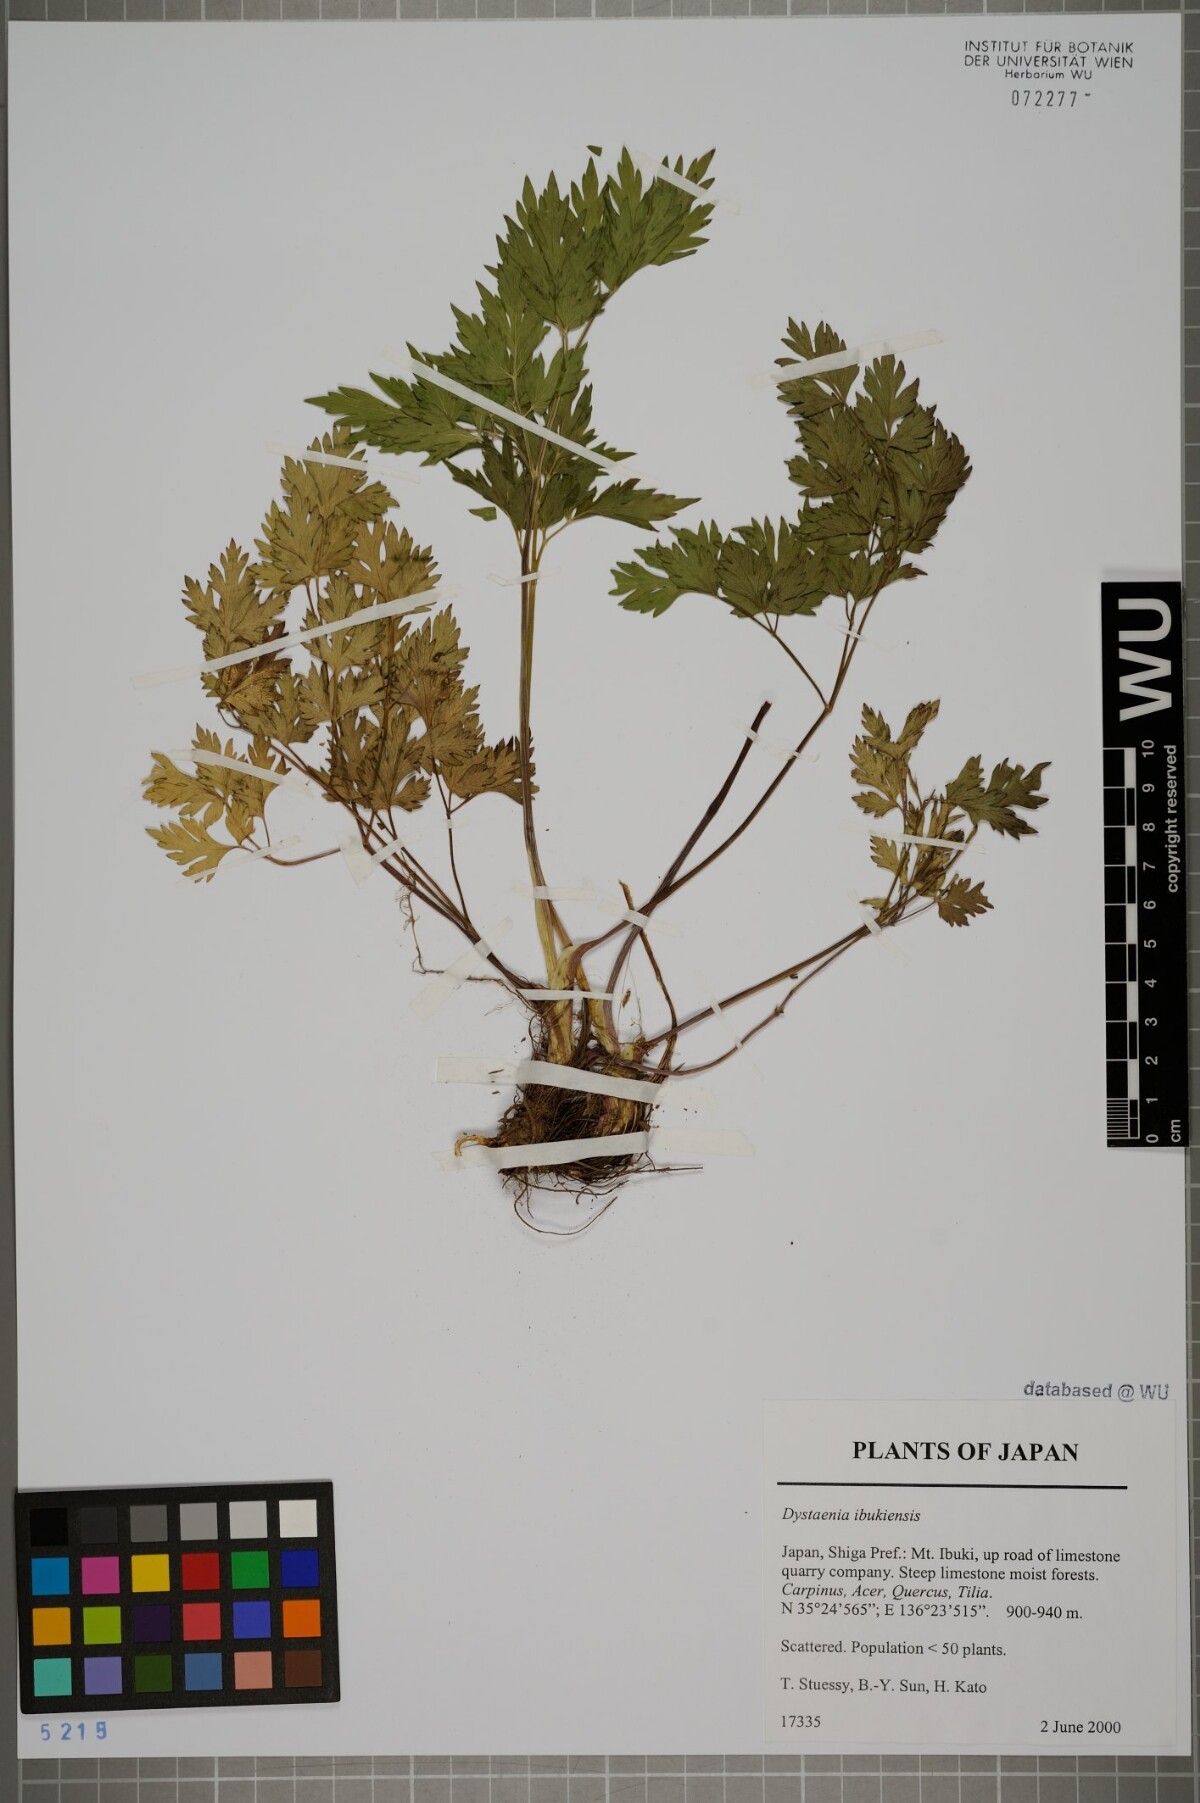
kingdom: Plantae
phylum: Tracheophyta
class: Magnoliopsida
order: Apiales
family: Apiaceae
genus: Dystaenia
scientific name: Dystaenia ibukiensis
